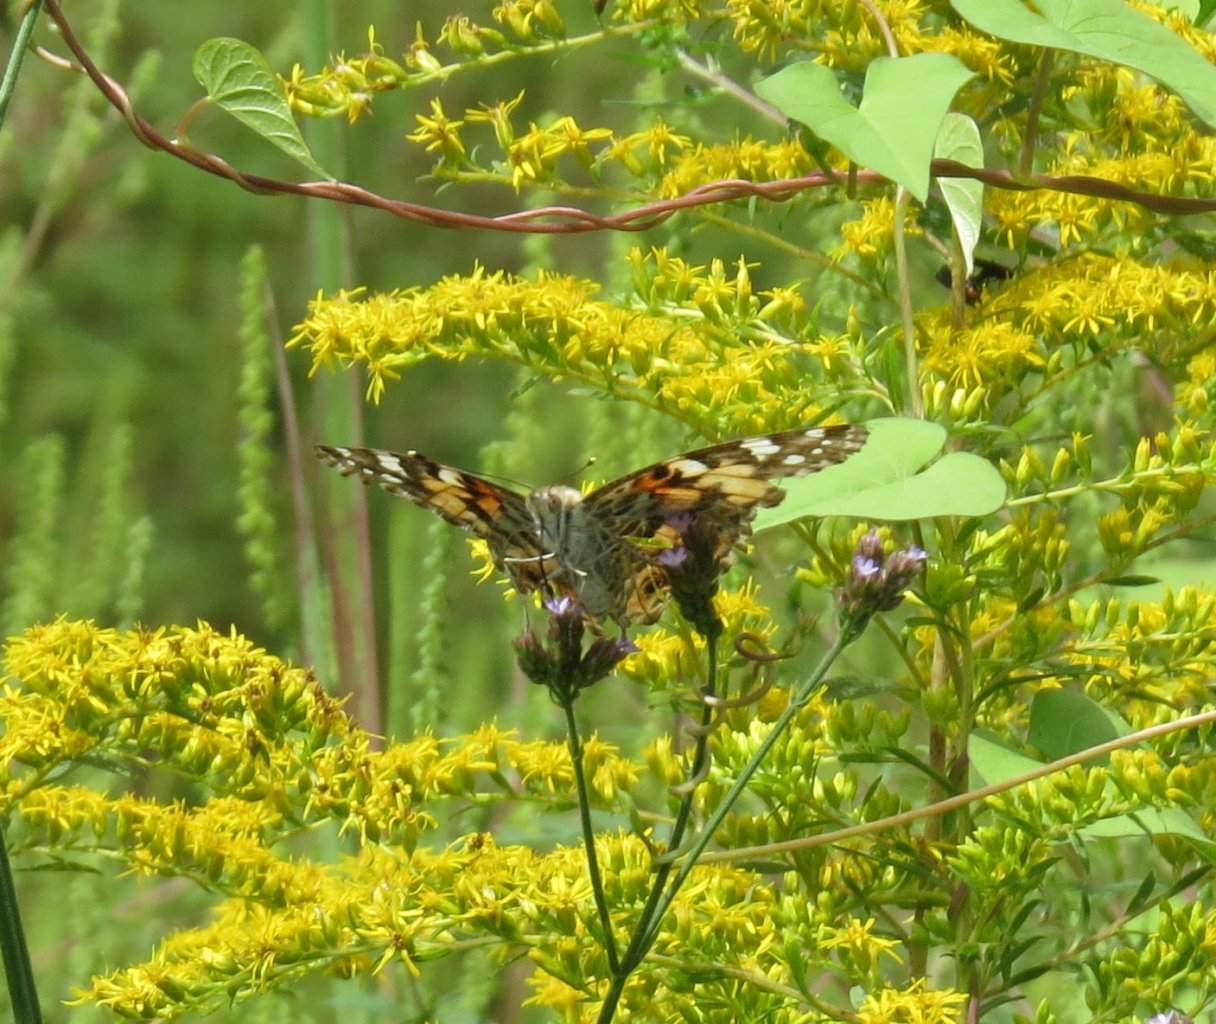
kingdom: Animalia
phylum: Arthropoda
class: Insecta
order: Lepidoptera
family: Nymphalidae
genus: Vanessa
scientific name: Vanessa cardui
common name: Painted Lady
